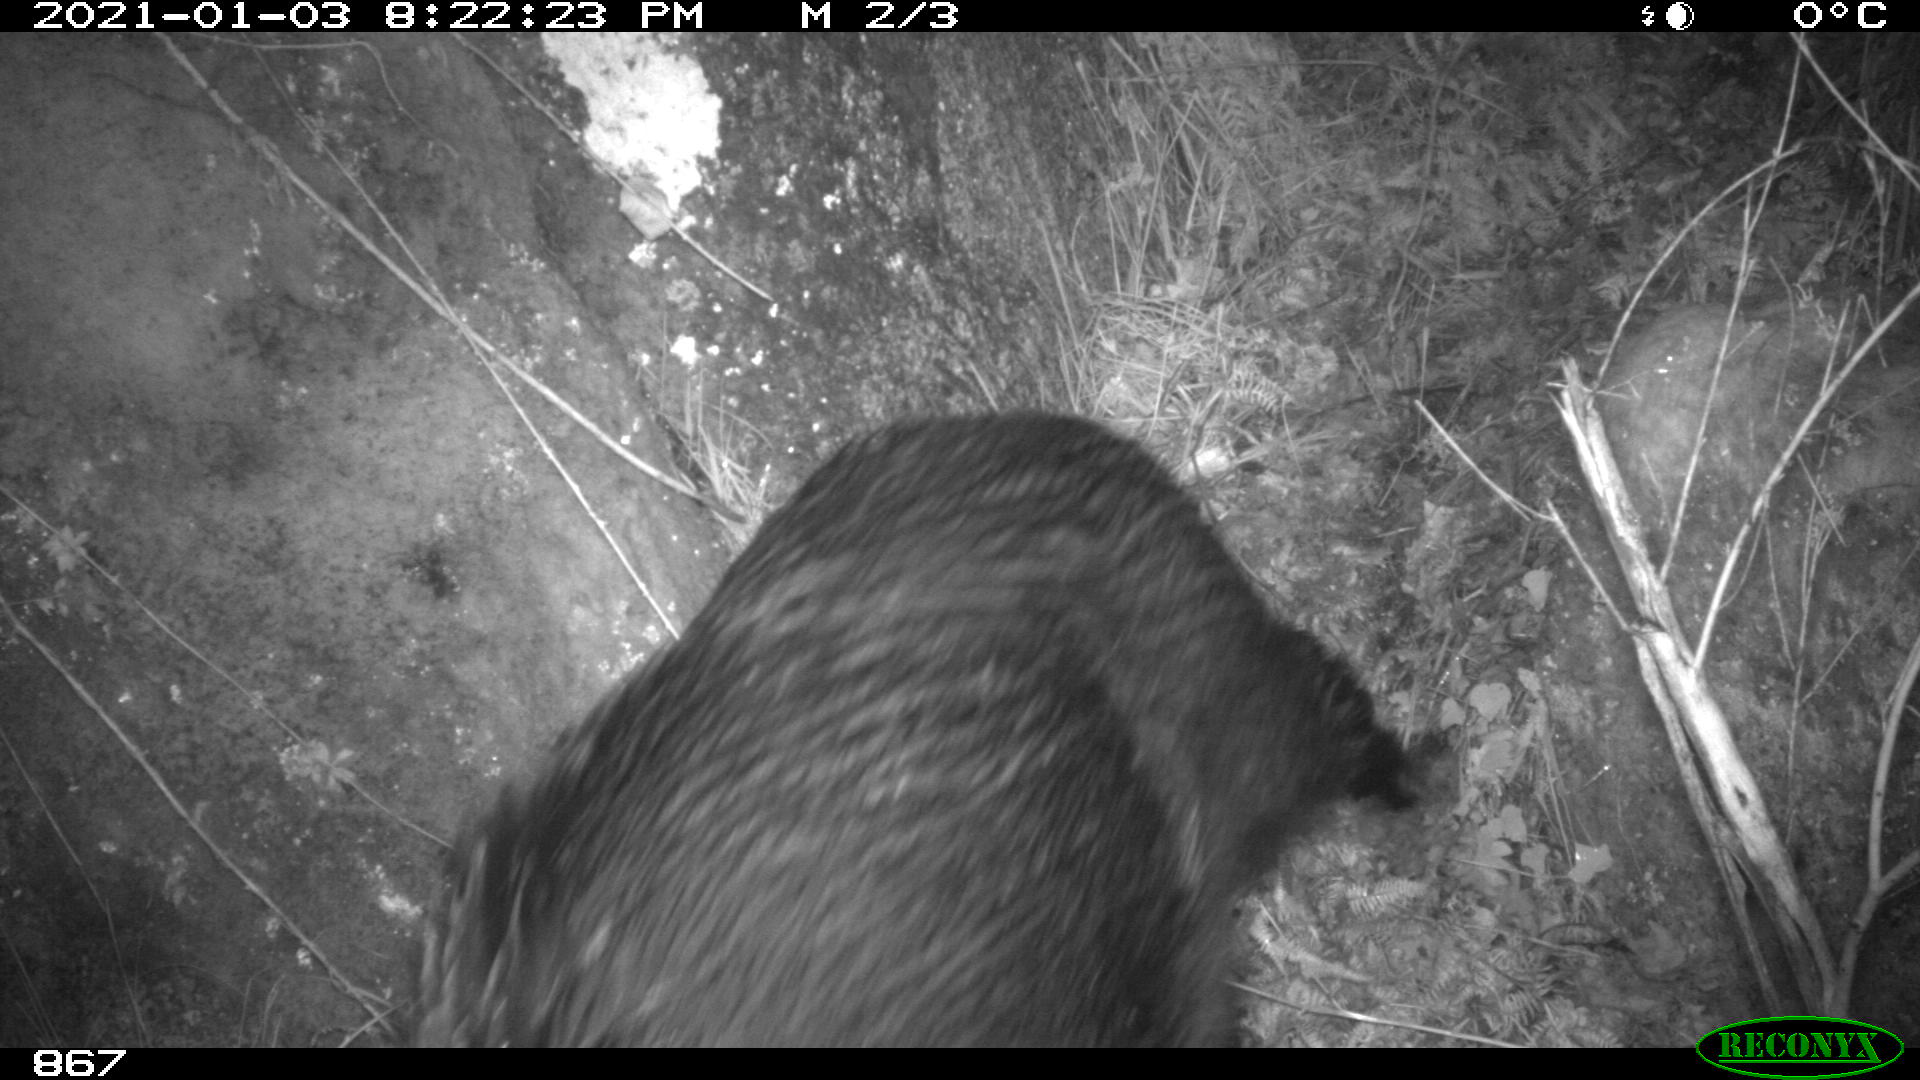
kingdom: Animalia
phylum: Chordata
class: Mammalia
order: Artiodactyla
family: Suidae
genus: Sus
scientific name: Sus scrofa
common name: Wild boar
